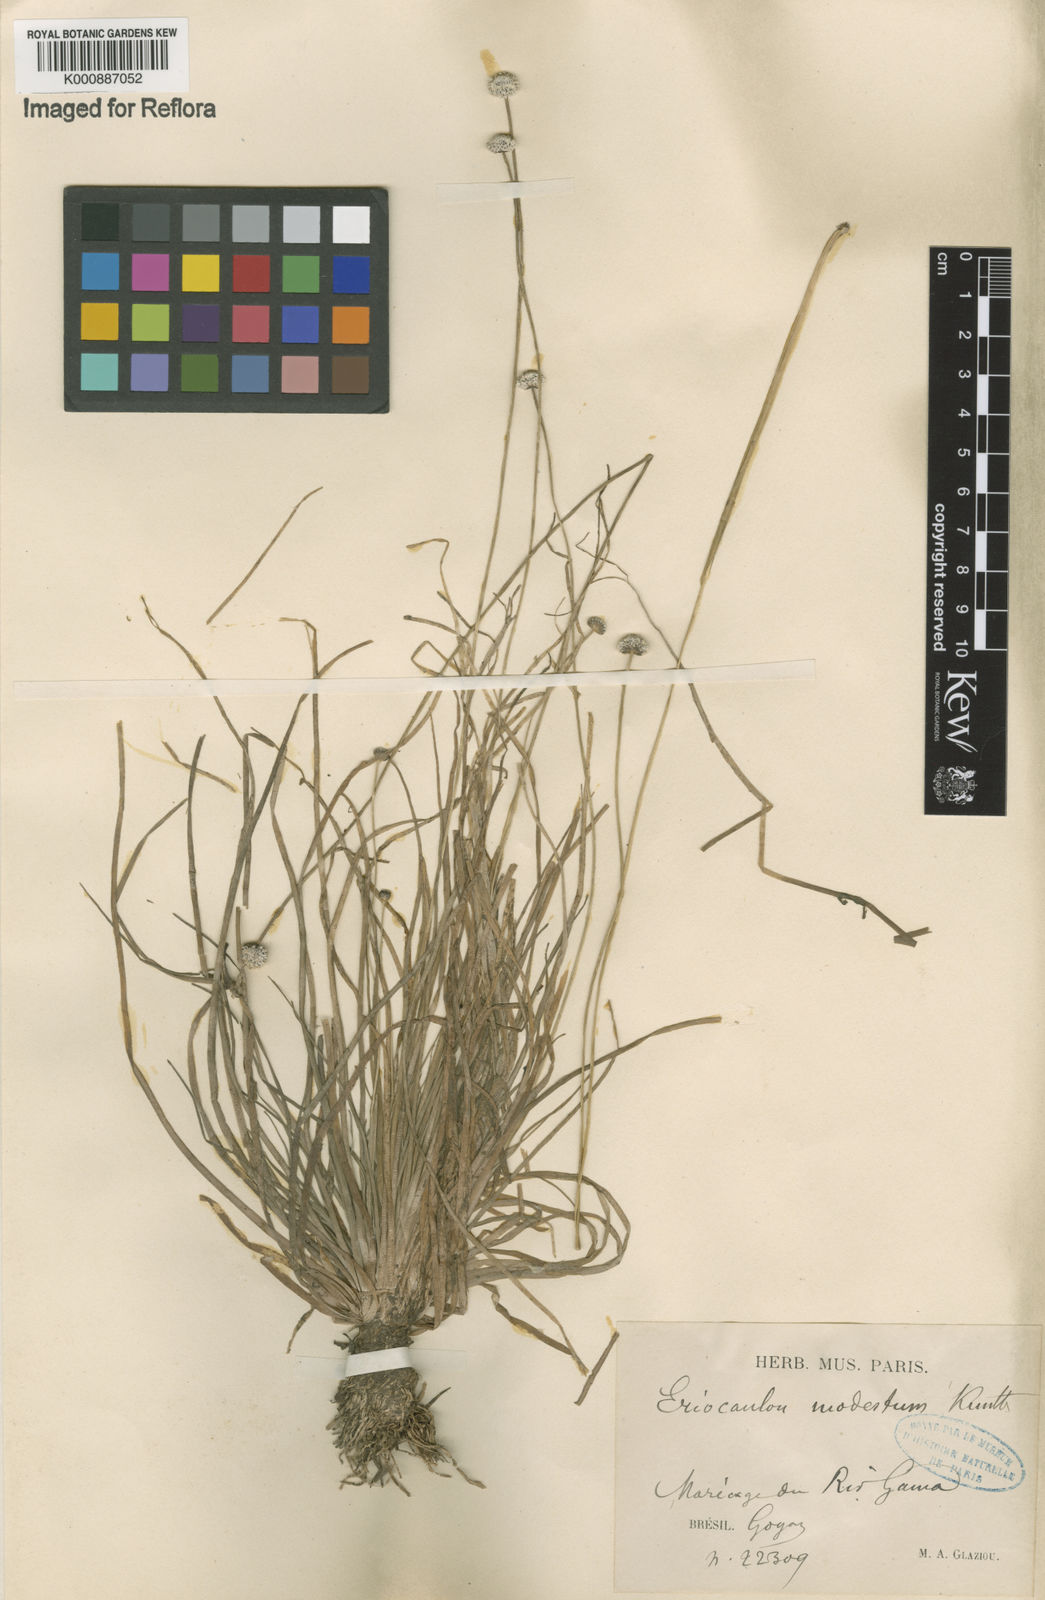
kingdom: Plantae
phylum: Tracheophyta
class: Liliopsida
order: Poales
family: Eriocaulaceae
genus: Eriocaulon
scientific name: Eriocaulon modestum
